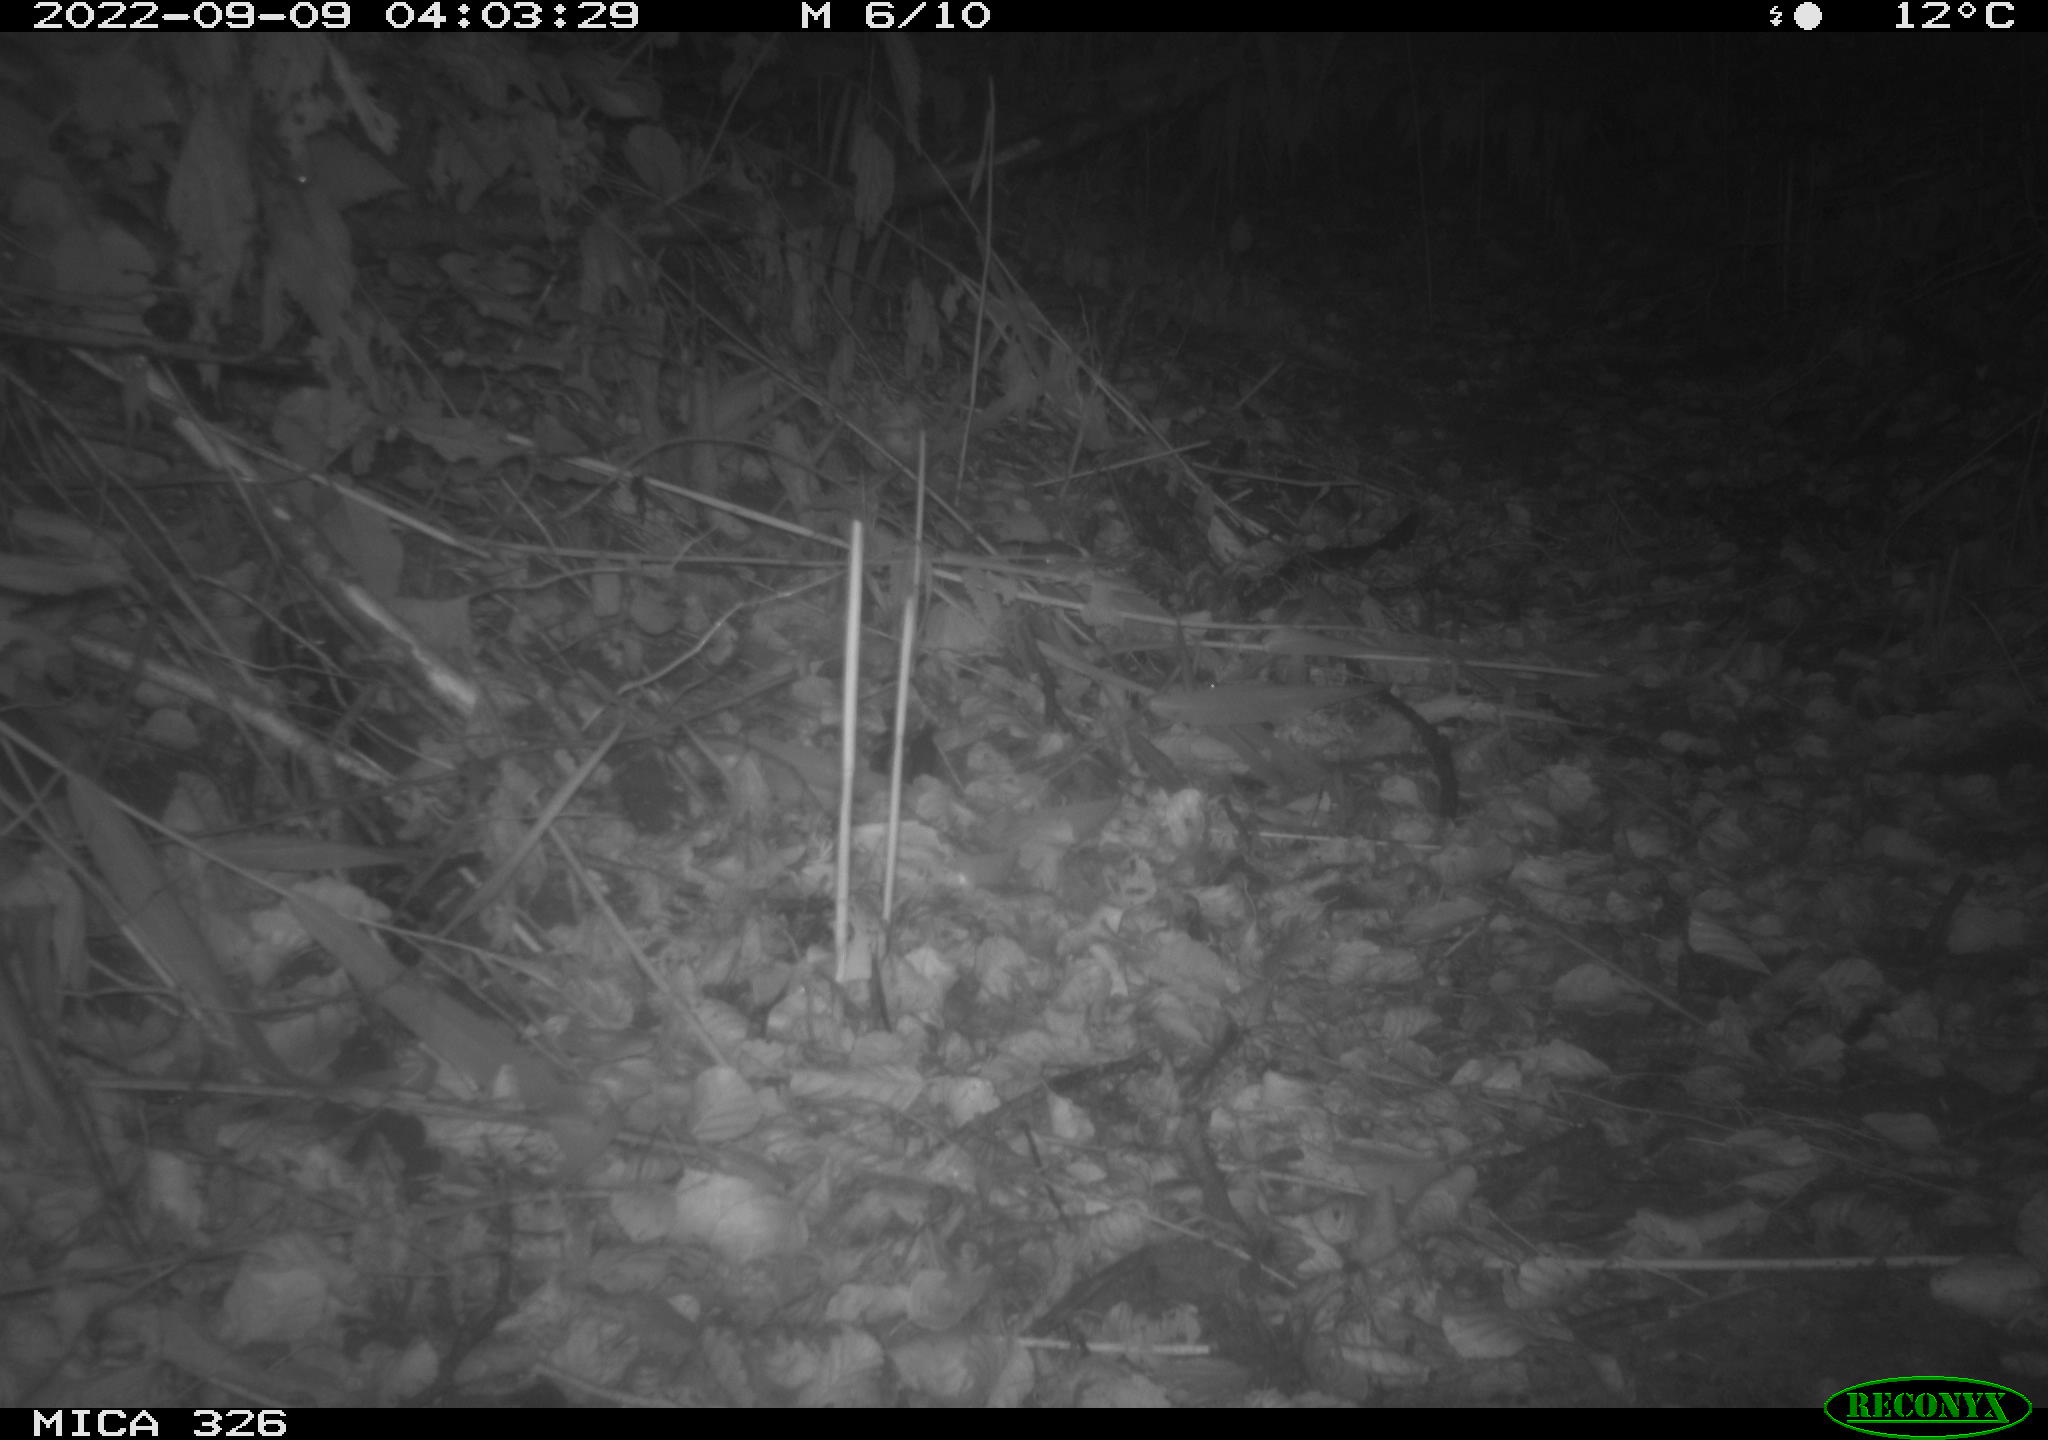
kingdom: Animalia
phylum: Chordata
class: Mammalia
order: Rodentia
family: Muridae
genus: Apodemus
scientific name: Apodemus sylvaticus
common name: Wood mouse
